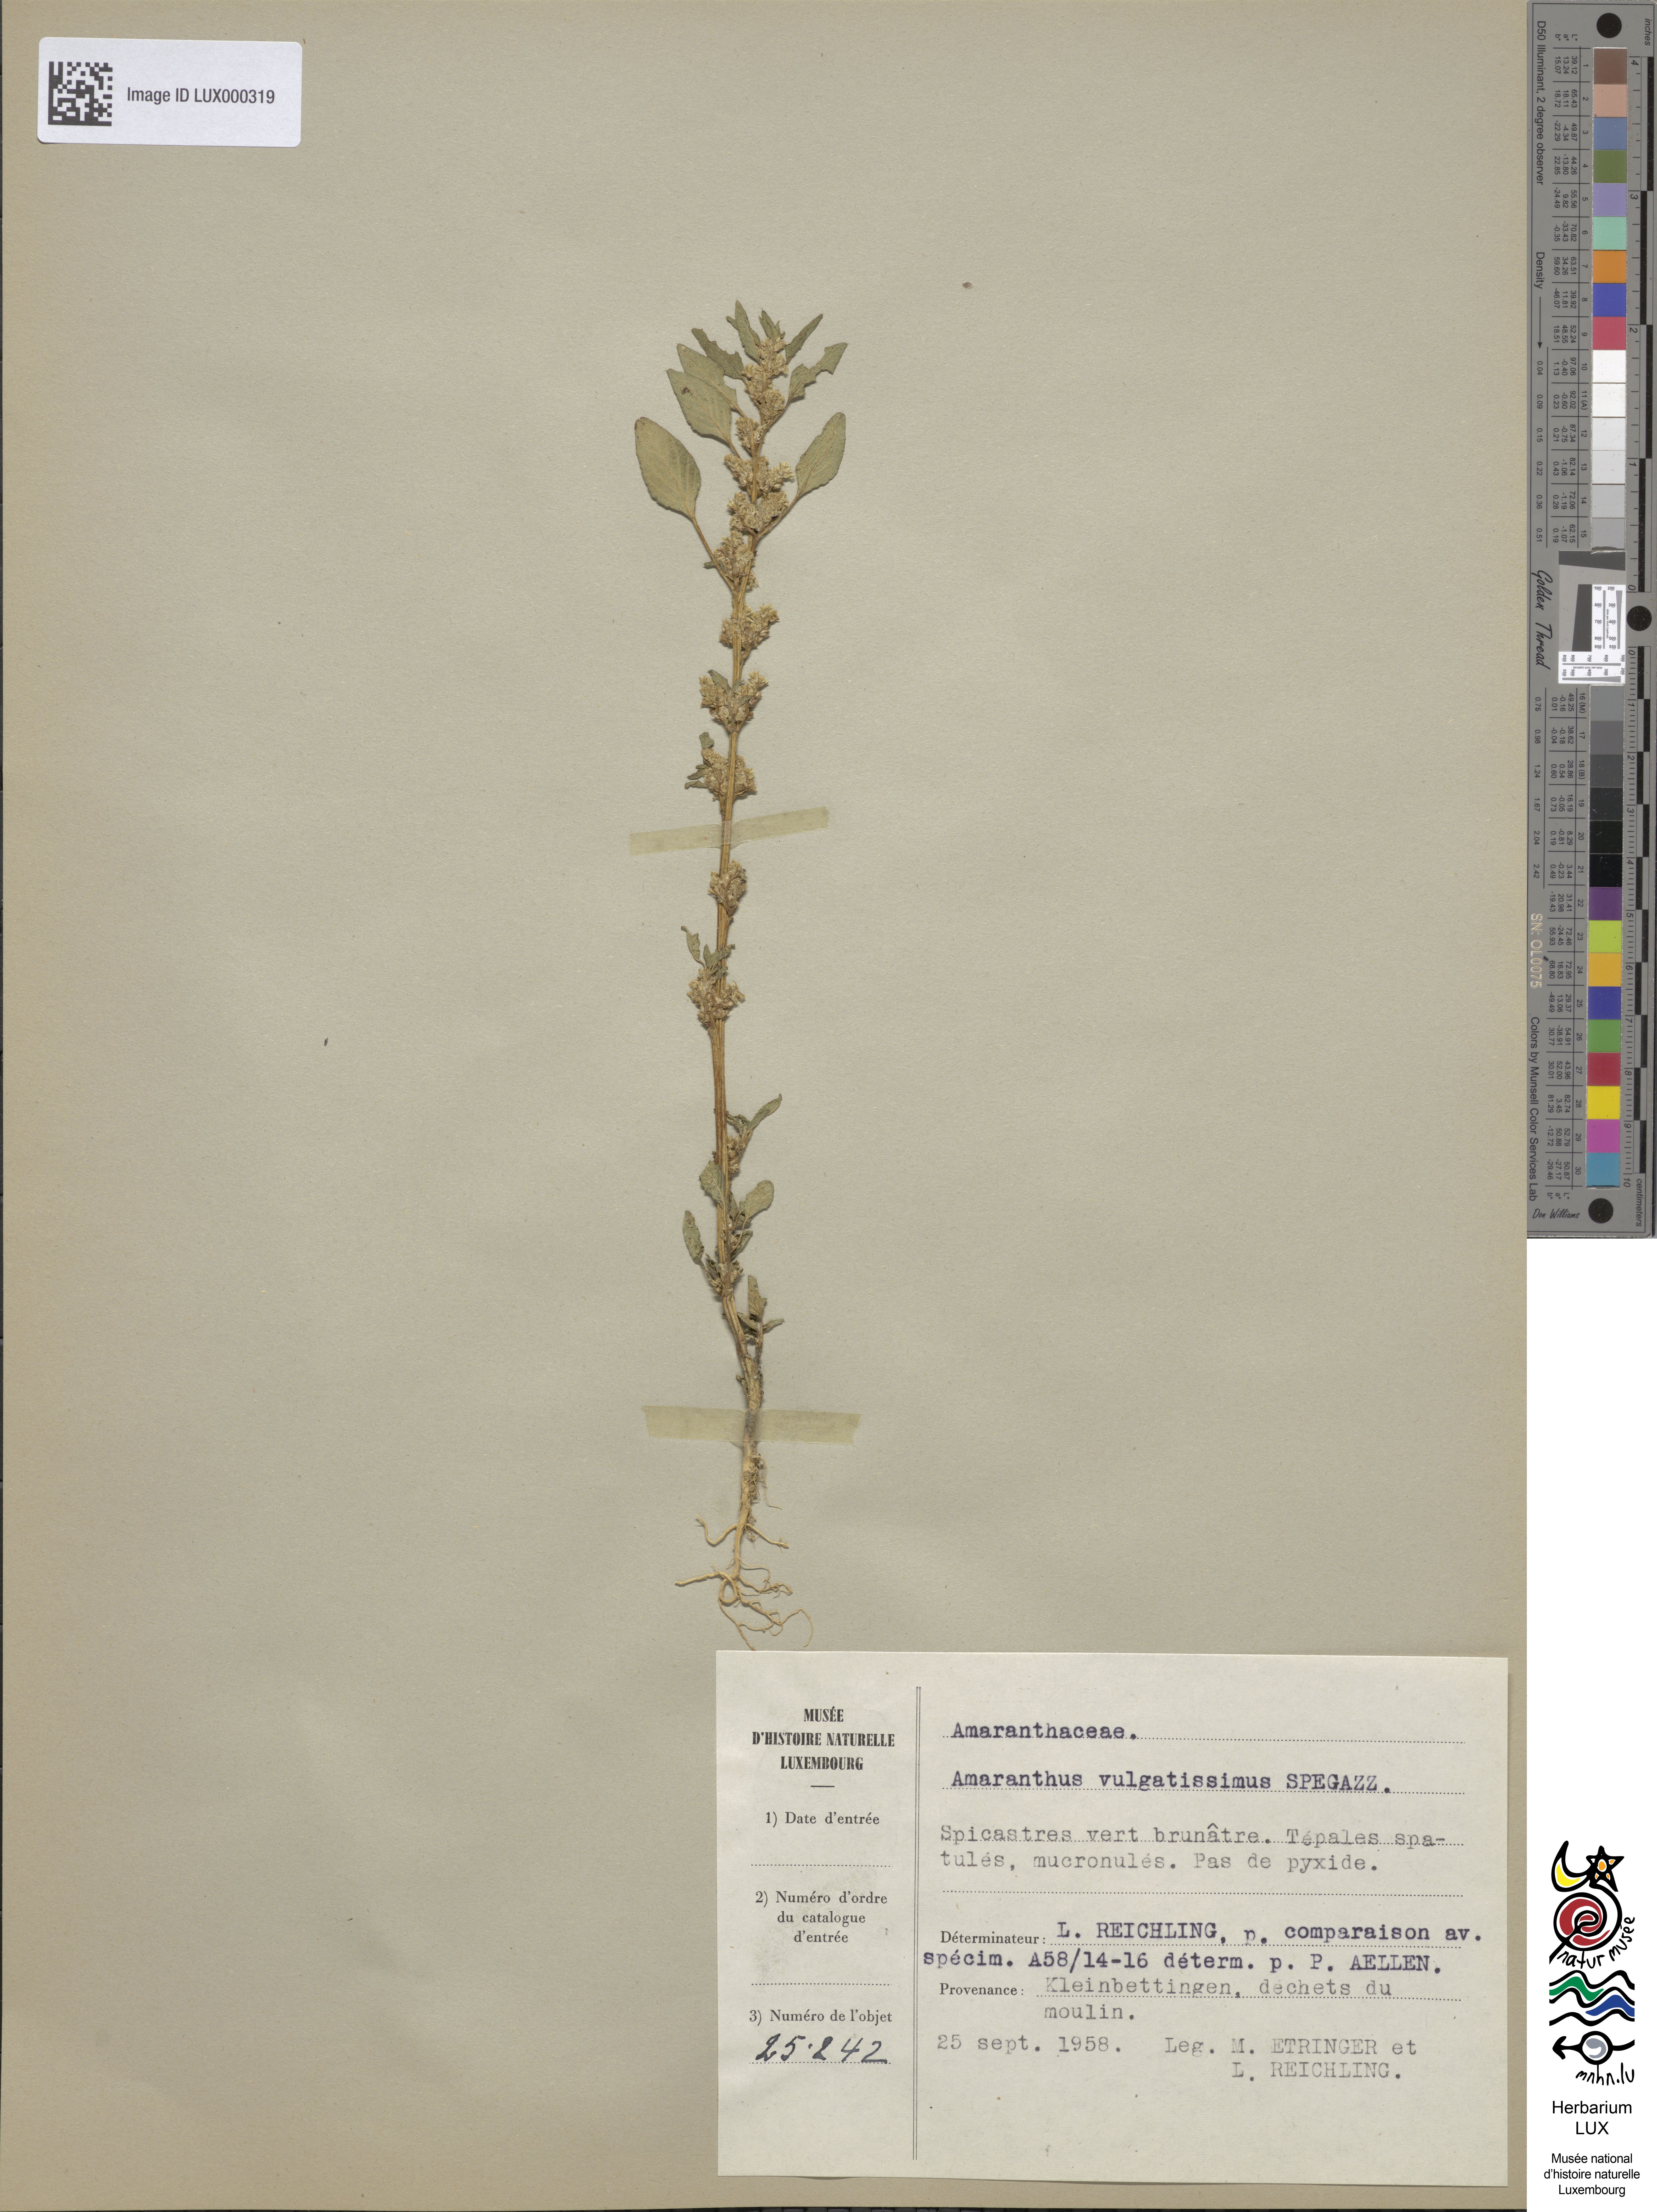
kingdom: Plantae
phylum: Tracheophyta
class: Magnoliopsida
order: Caryophyllales
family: Amaranthaceae
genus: Amaranthus
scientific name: Amaranthus vulgatissimus
